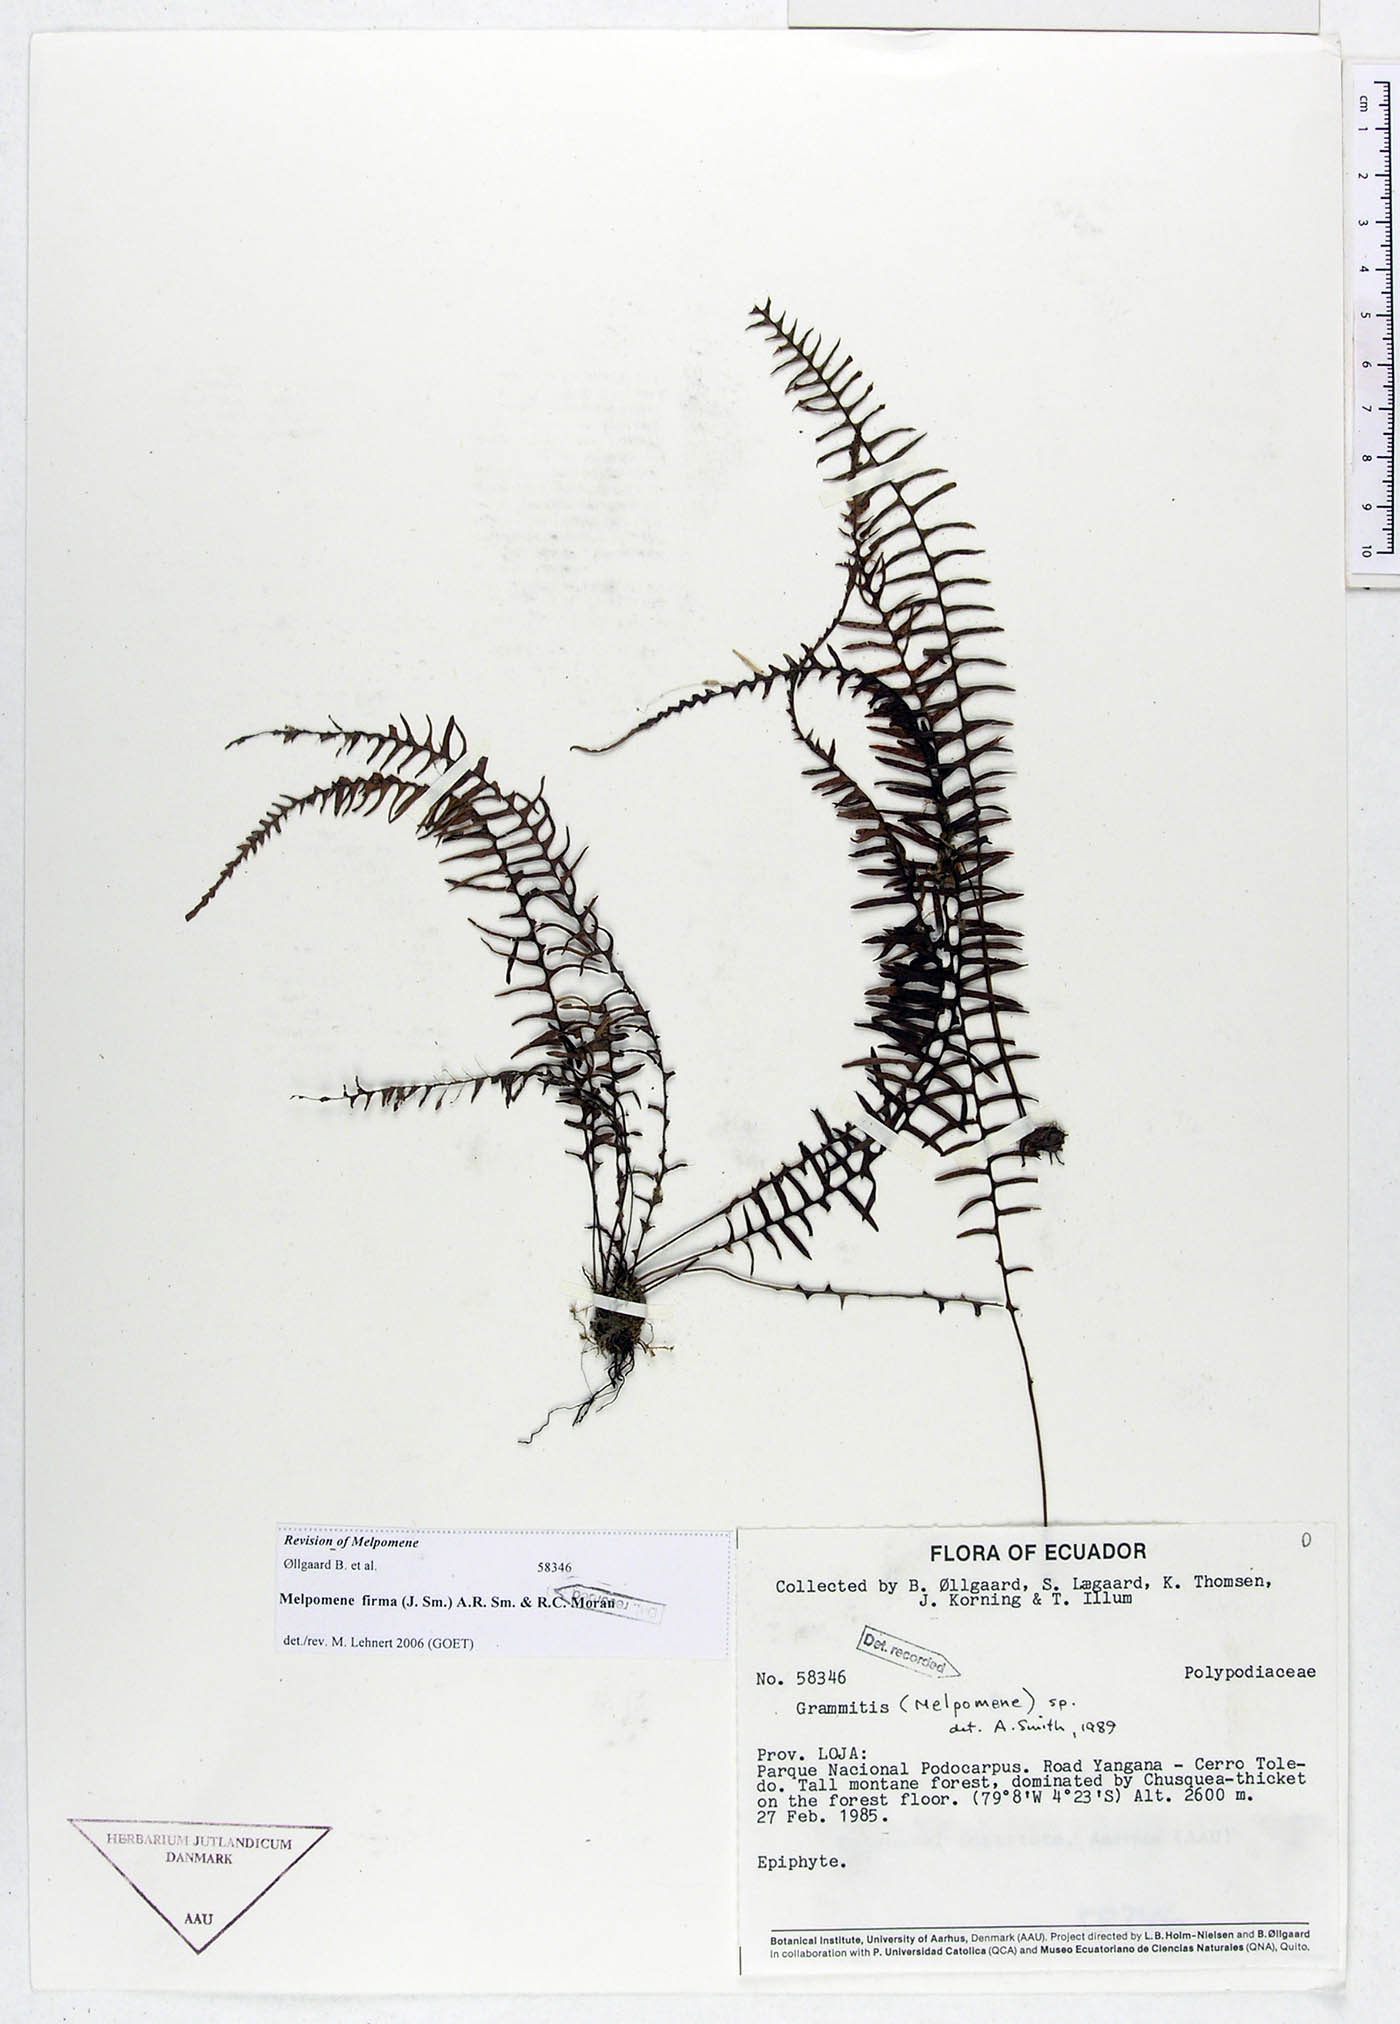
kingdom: Plantae
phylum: Tracheophyta
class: Polypodiopsida
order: Polypodiales
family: Polypodiaceae
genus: Melpomene
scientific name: Melpomene firma
